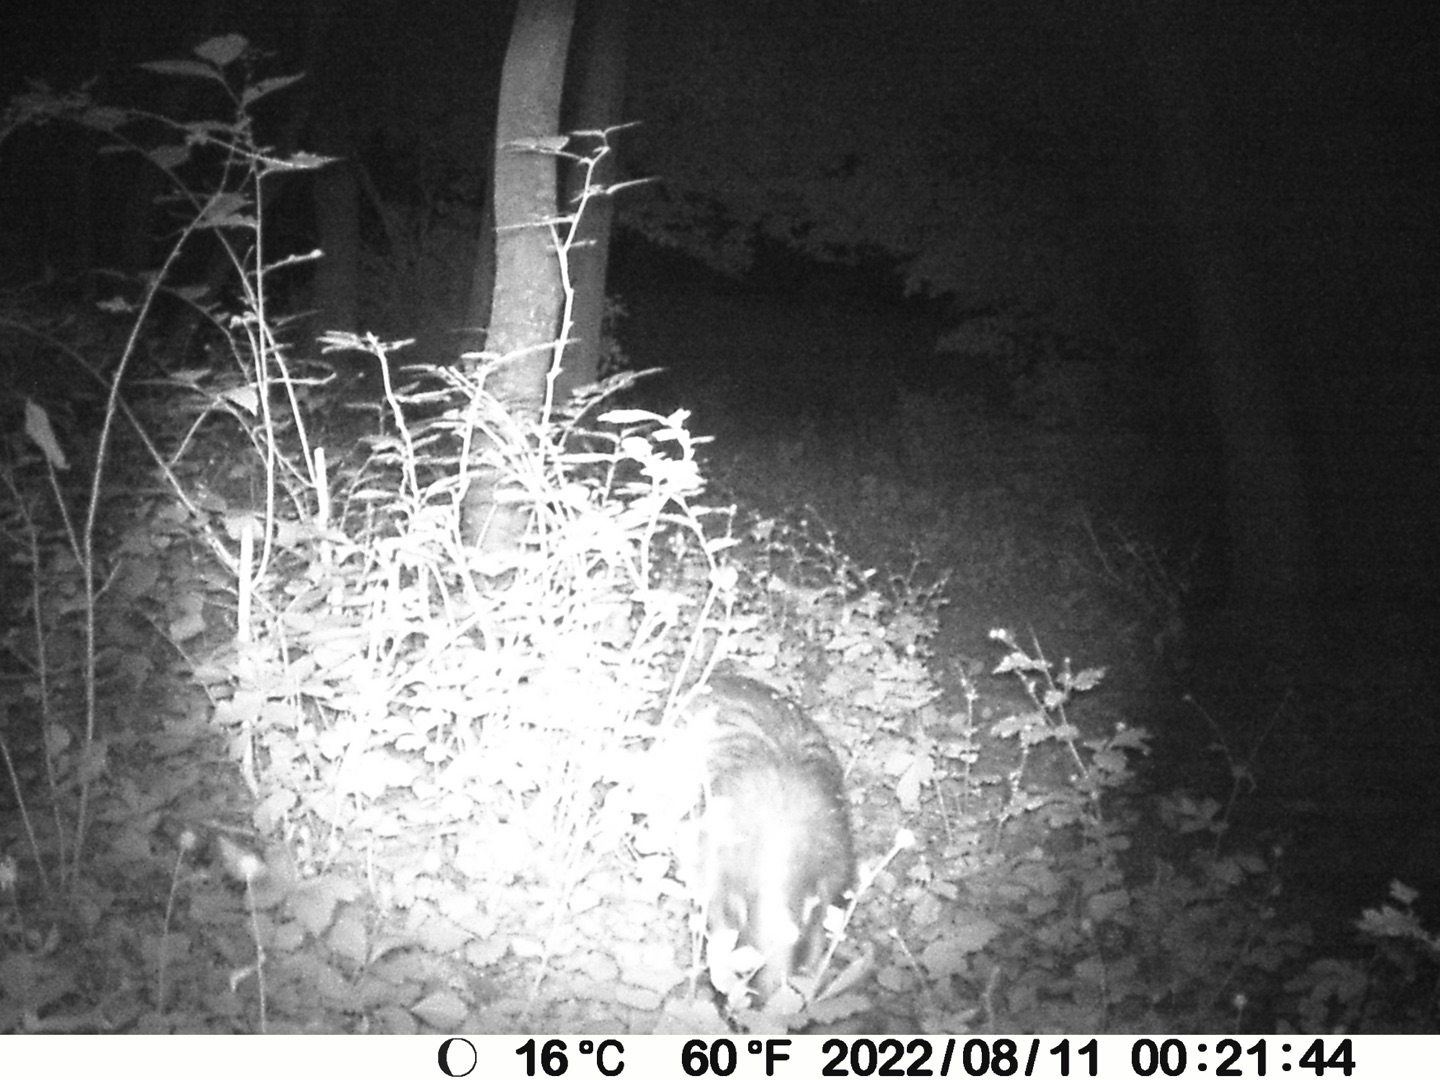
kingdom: Animalia
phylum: Chordata
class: Mammalia
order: Carnivora
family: Mustelidae
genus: Meles
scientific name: Meles meles
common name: Grævling
